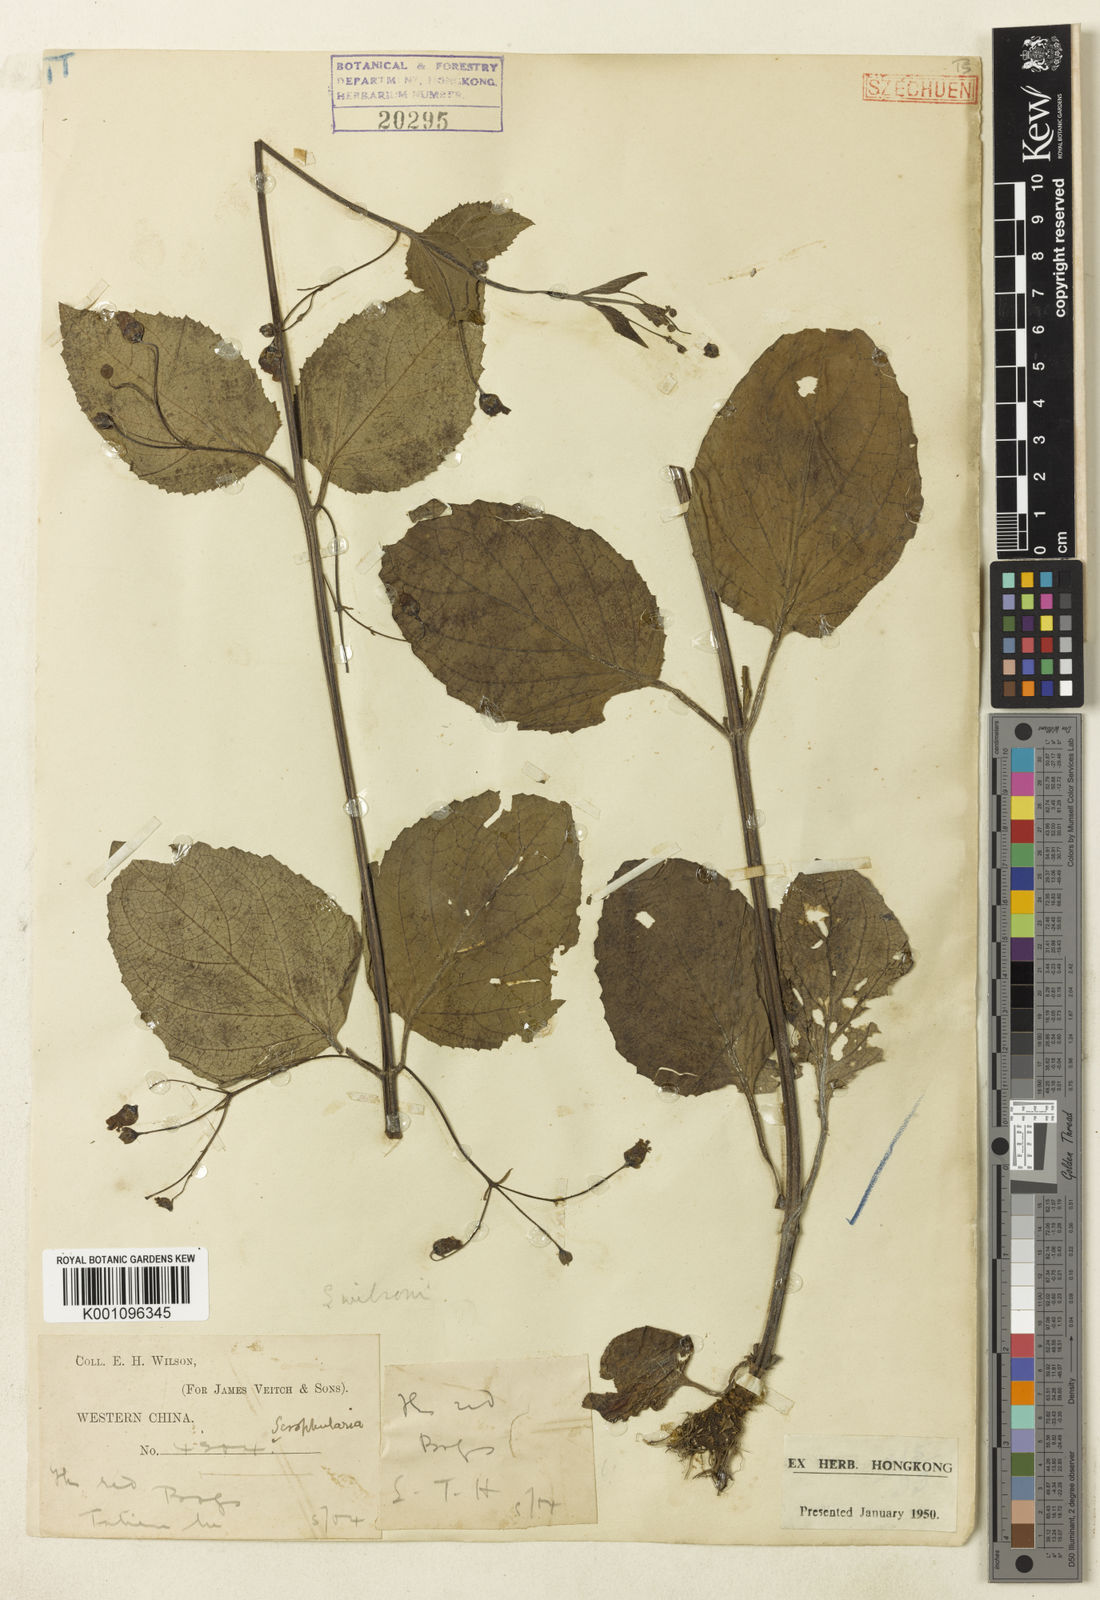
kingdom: Plantae
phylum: Tracheophyta
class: Magnoliopsida
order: Lamiales
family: Scrophulariaceae
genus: Scrophularia
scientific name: Scrophularia fargesii
